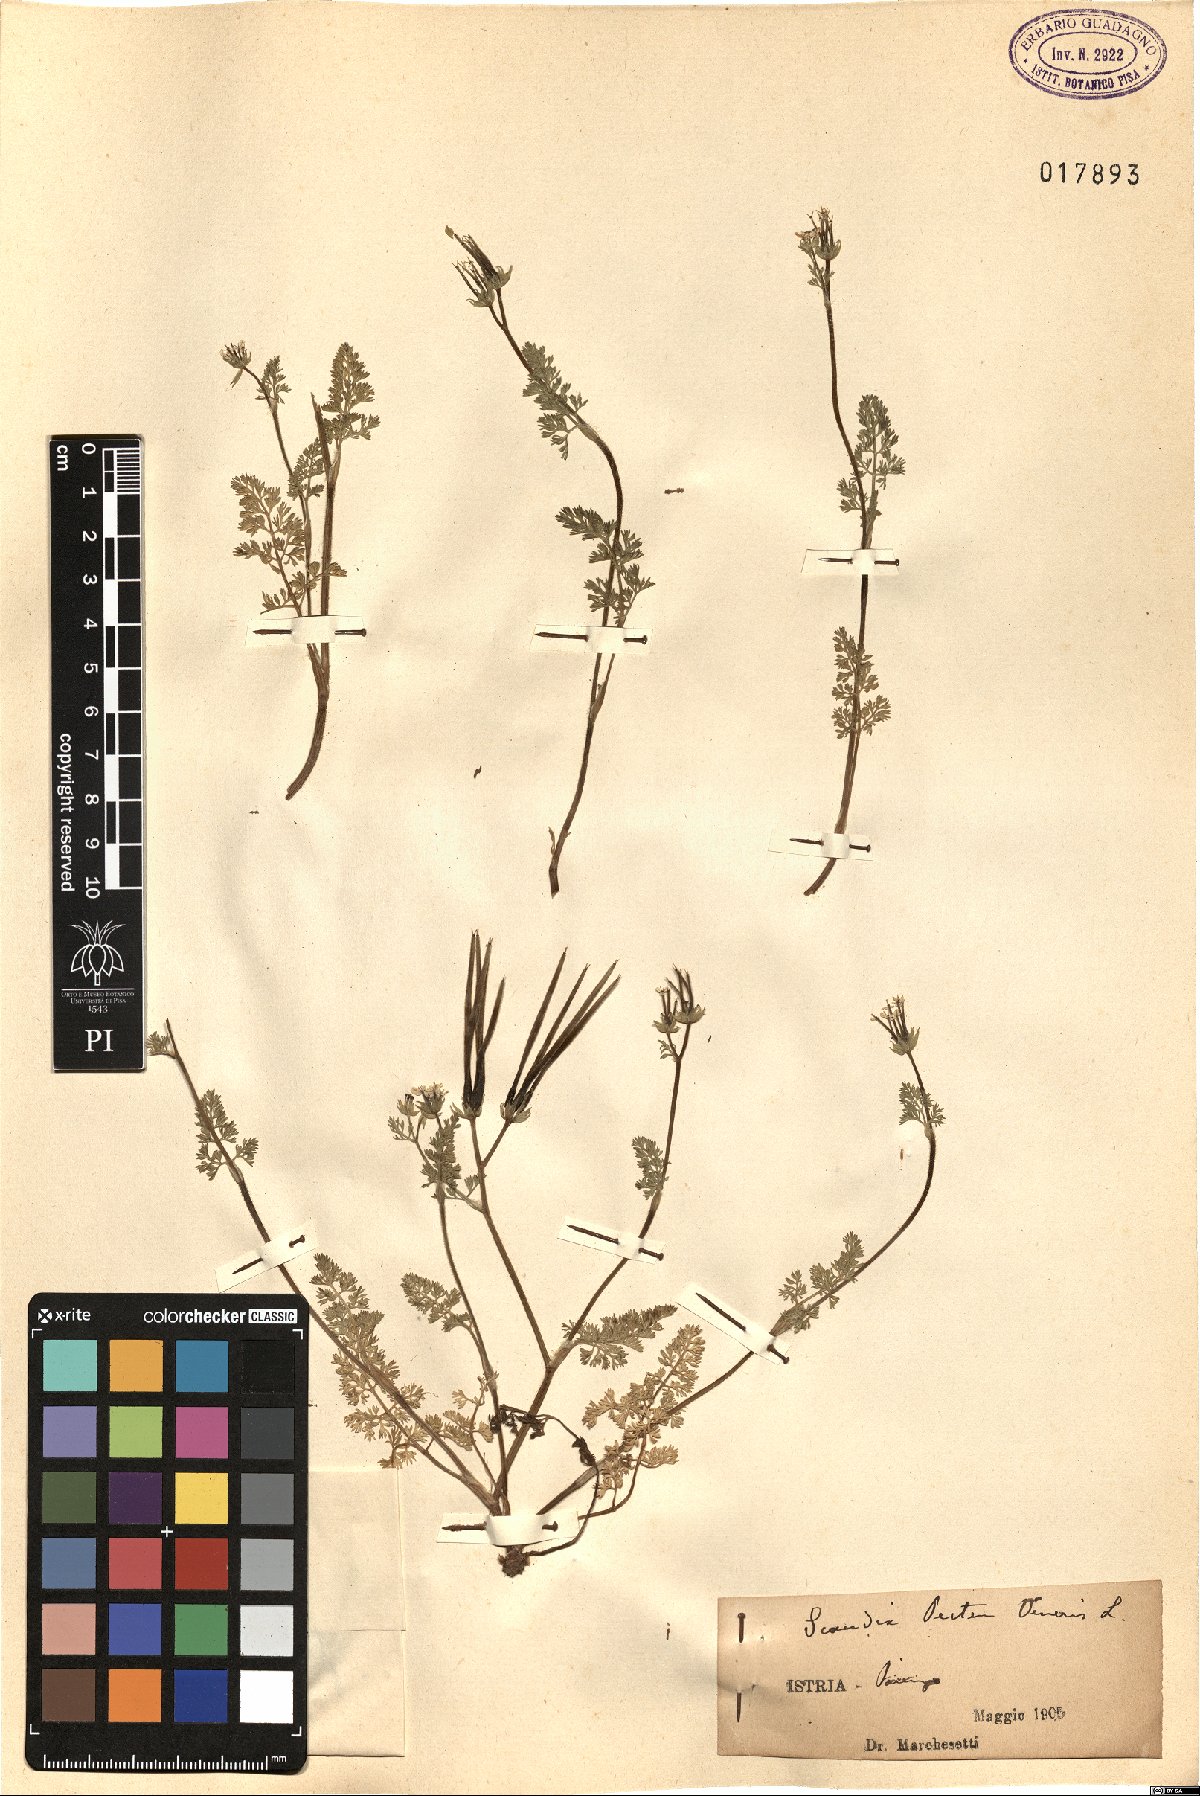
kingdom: Plantae
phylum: Tracheophyta
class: Magnoliopsida
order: Apiales
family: Apiaceae
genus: Scandix
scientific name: Scandix pecten-veneris
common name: Shepherd's-needle
